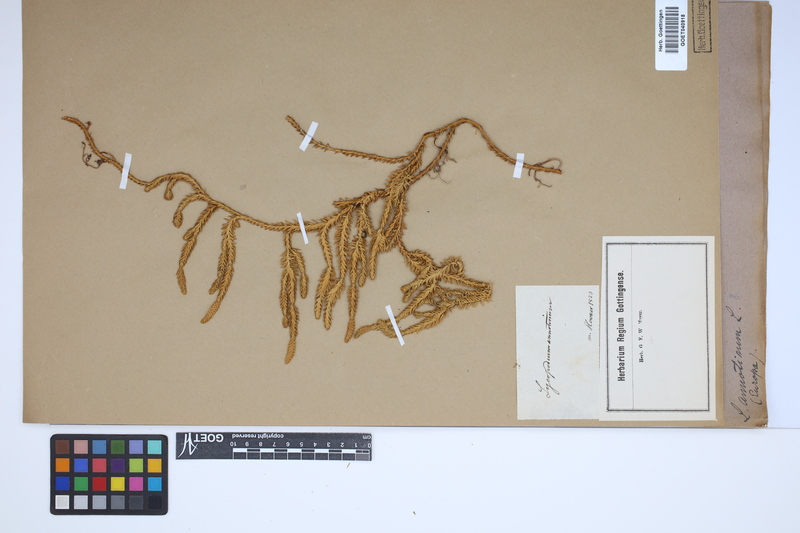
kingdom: Plantae
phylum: Tracheophyta
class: Lycopodiopsida
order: Lycopodiales
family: Lycopodiaceae
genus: Spinulum
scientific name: Spinulum annotinum
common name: Interrupted club-moss
